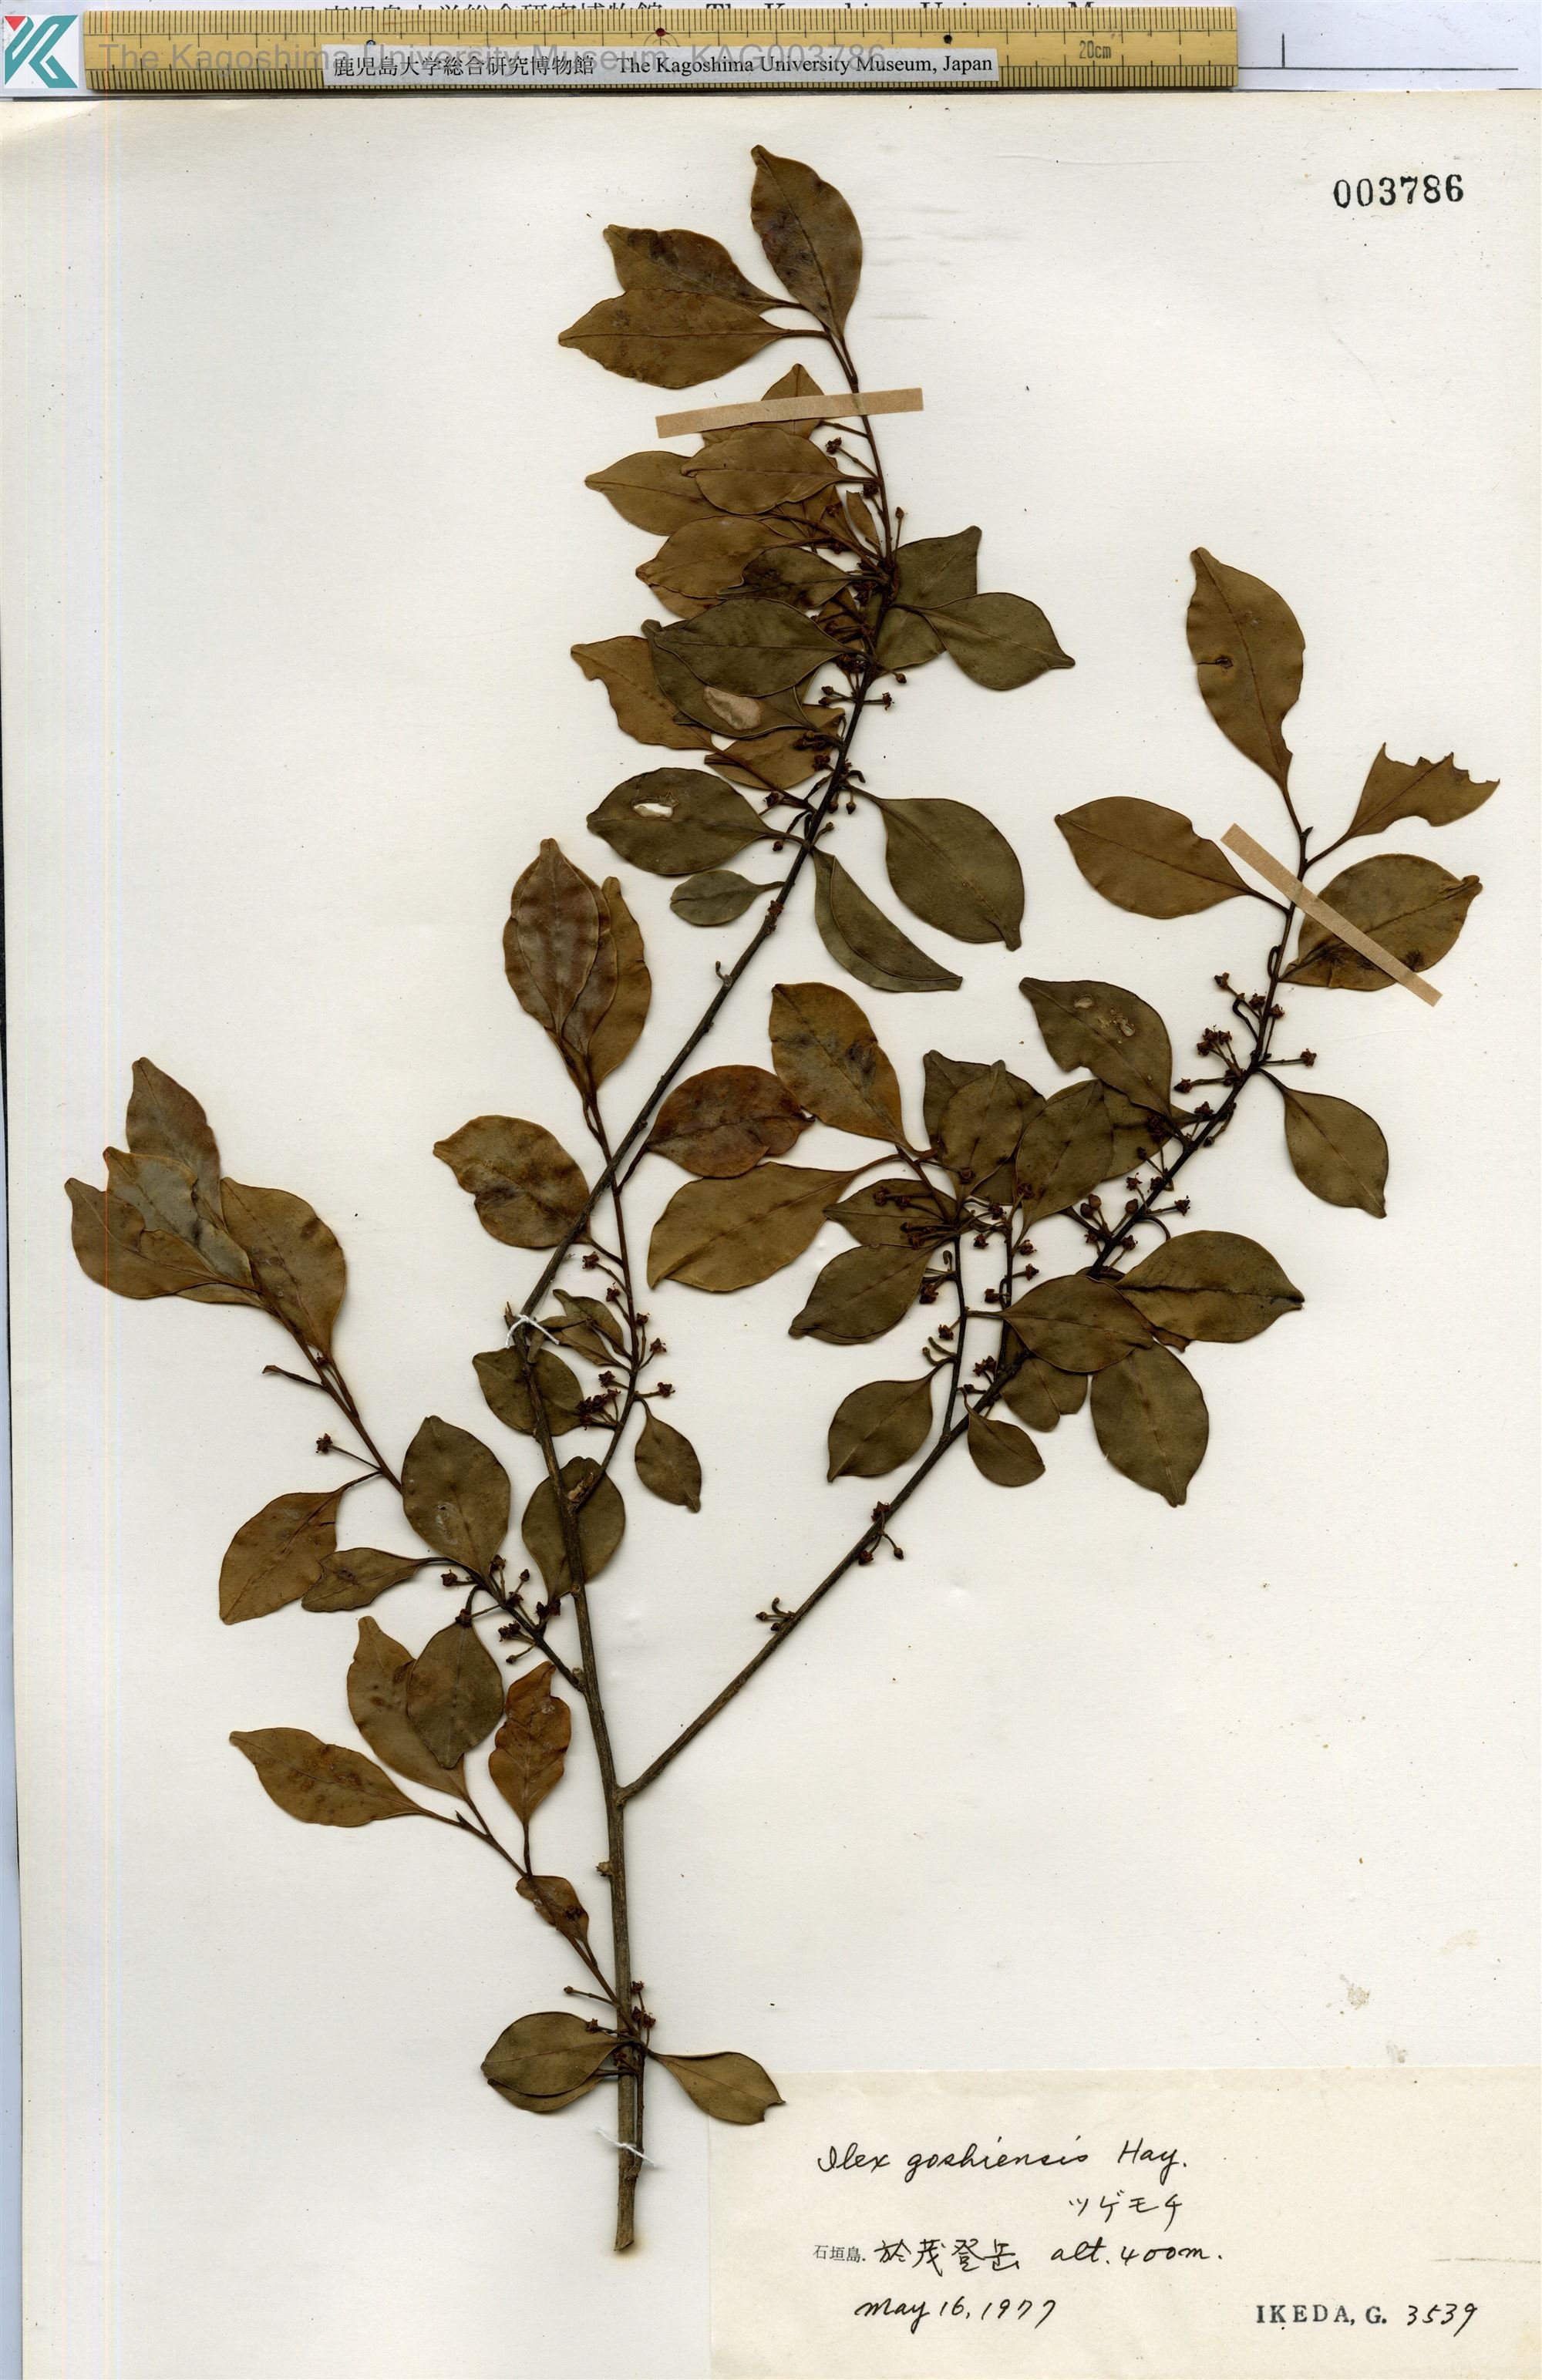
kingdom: Plantae
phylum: Tracheophyta
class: Magnoliopsida
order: Aquifoliales
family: Aquifoliaceae
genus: Ilex
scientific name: Ilex goshiensis
